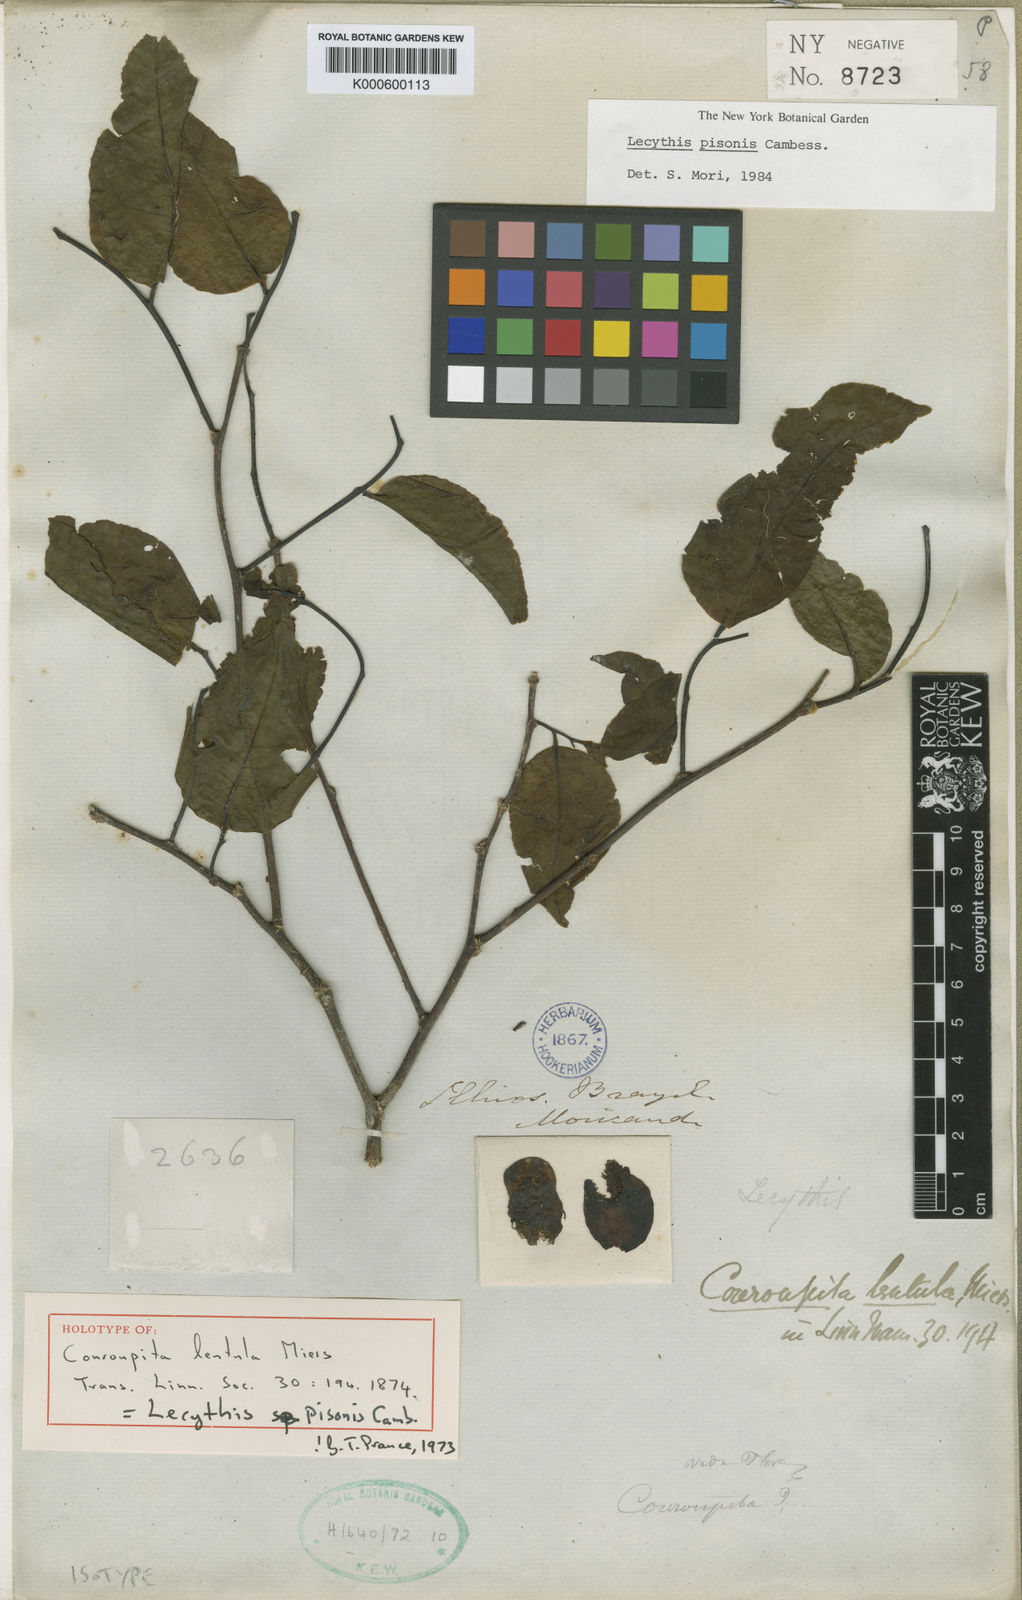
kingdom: Plantae
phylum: Tracheophyta
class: Magnoliopsida
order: Ericales
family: Lecythidaceae
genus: Lecythis
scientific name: Lecythis pisonis
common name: Paradise-nut
